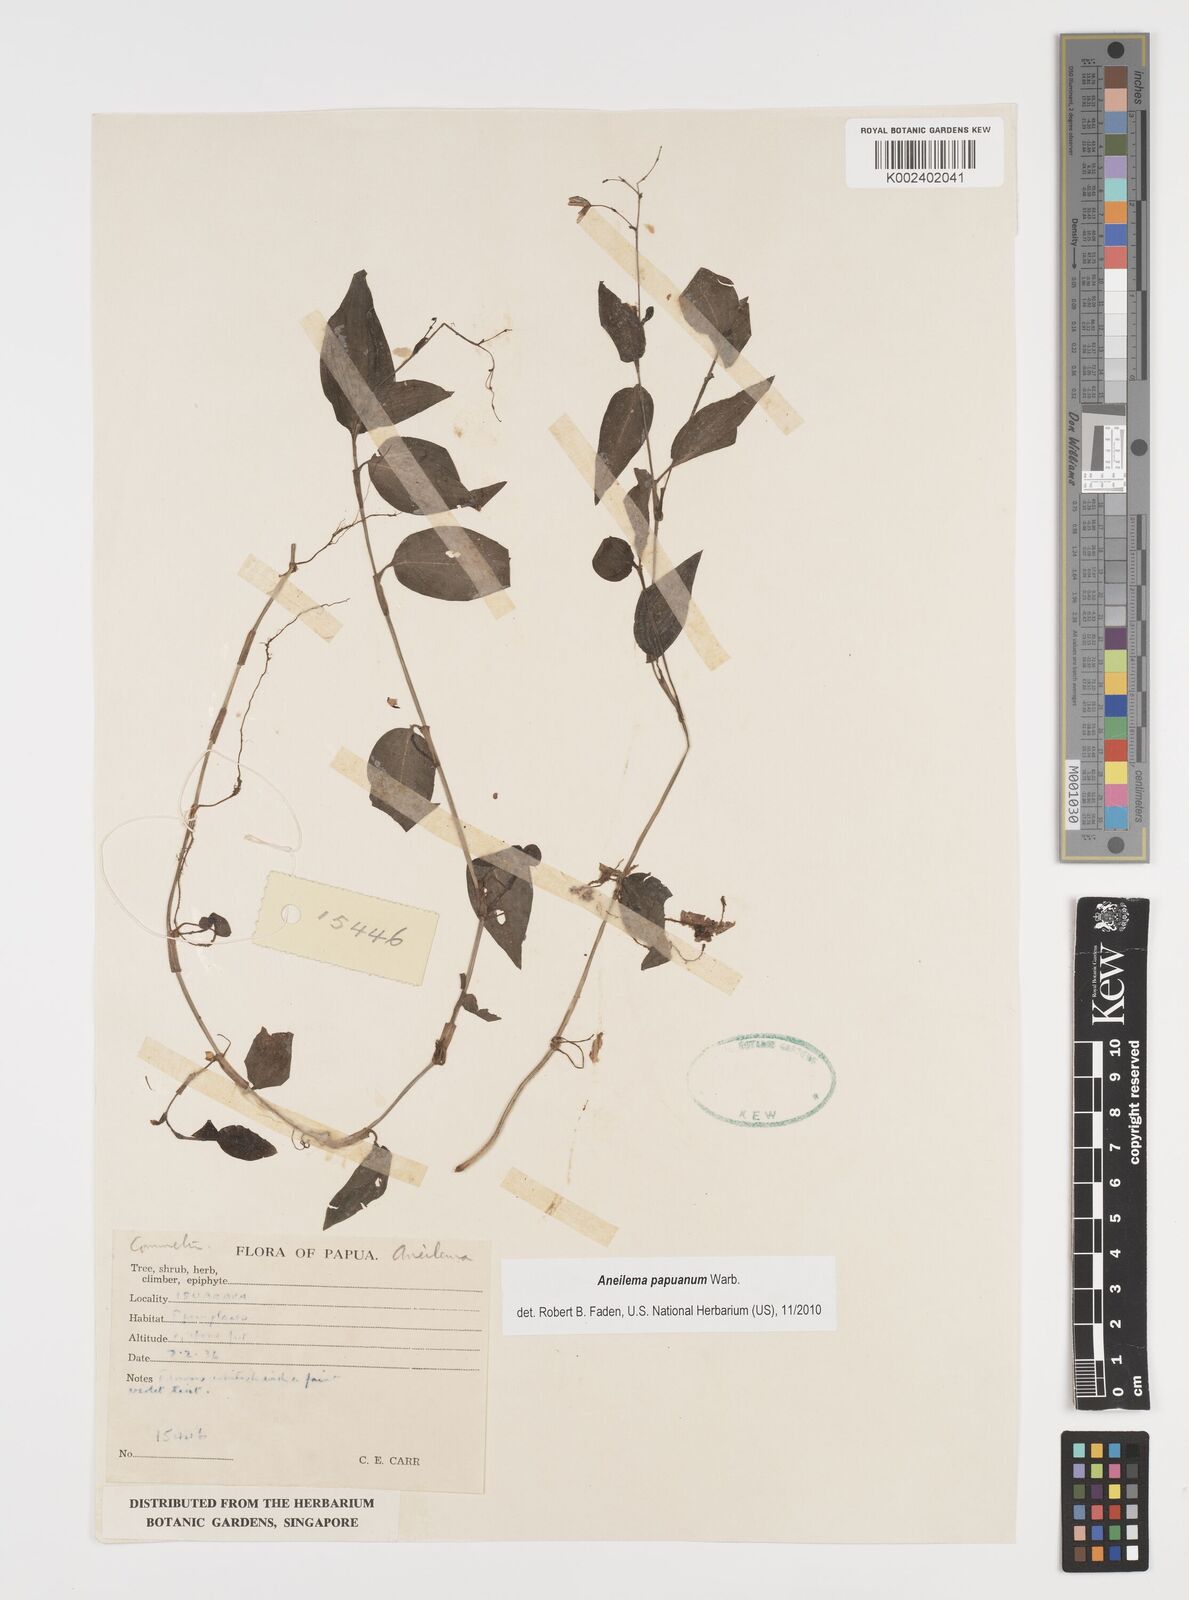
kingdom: Plantae
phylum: Tracheophyta
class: Liliopsida
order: Commelinales
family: Commelinaceae
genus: Aneilema
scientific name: Aneilema acuminatum
